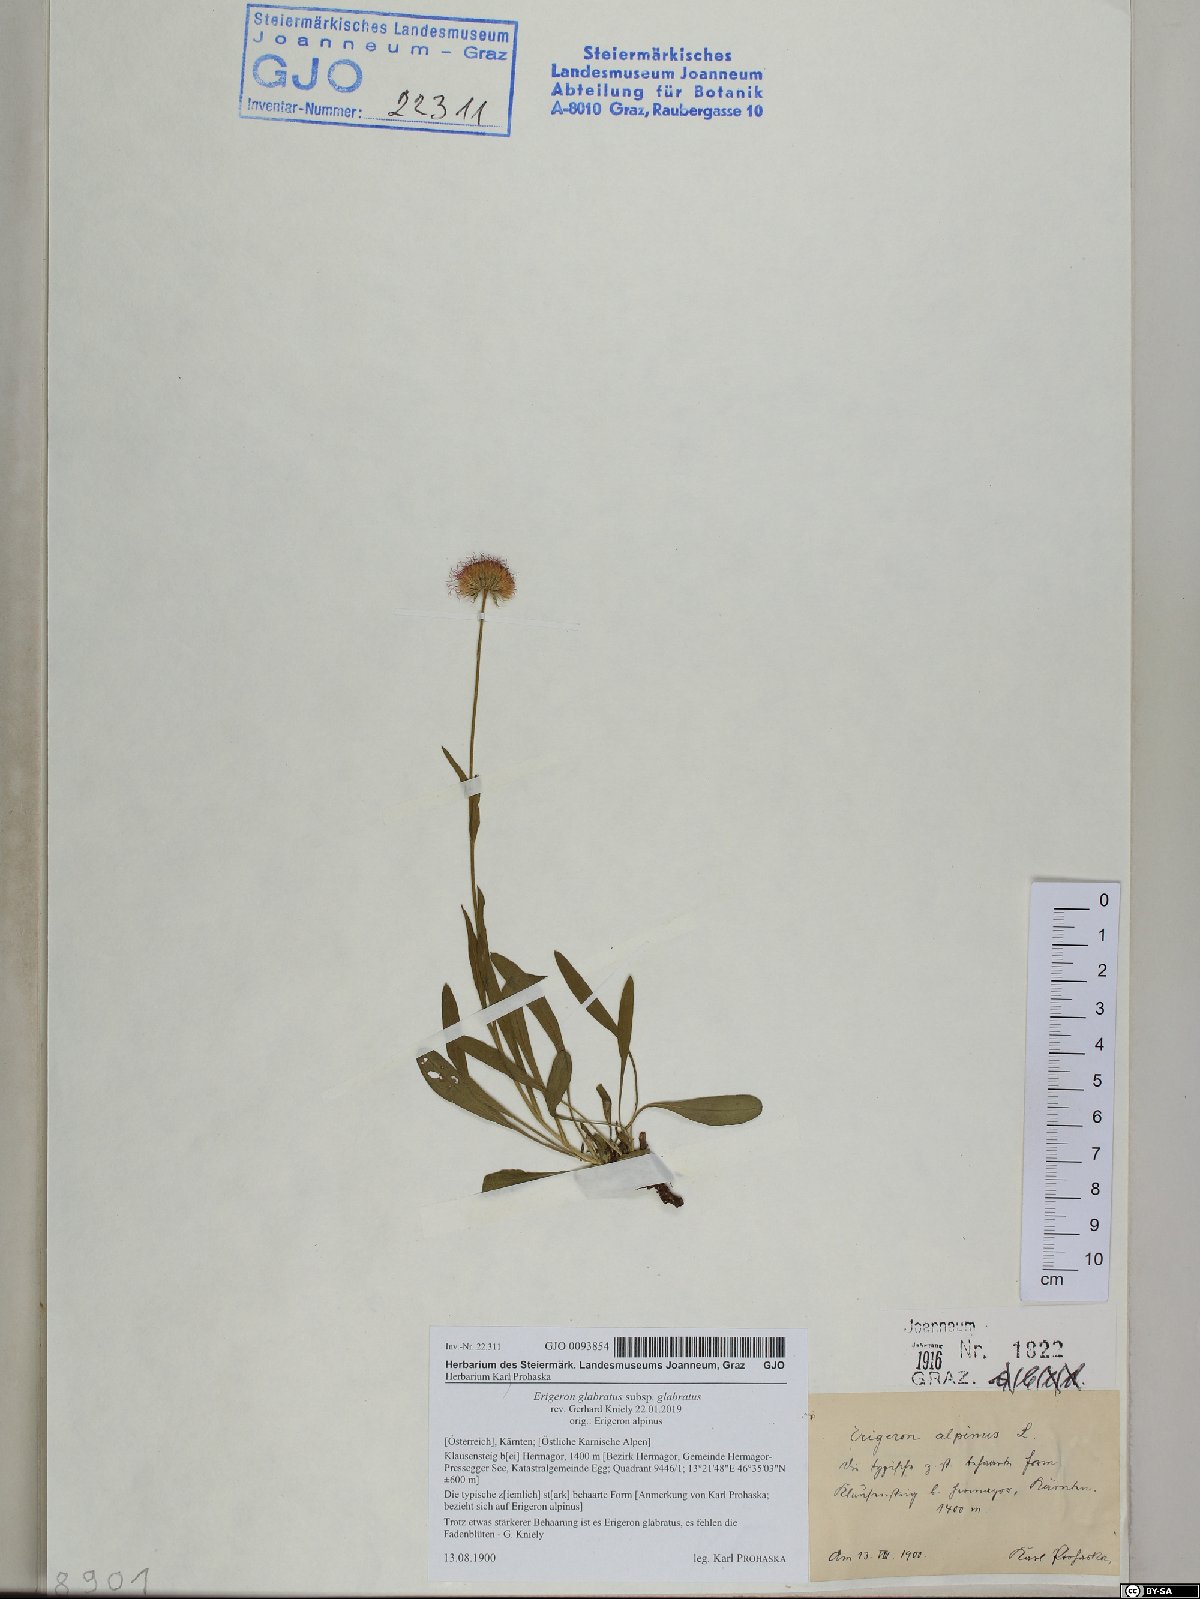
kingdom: Plantae
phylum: Tracheophyta
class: Magnoliopsida
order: Asterales
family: Asteraceae
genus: Erigeron
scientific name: Erigeron glabratus
